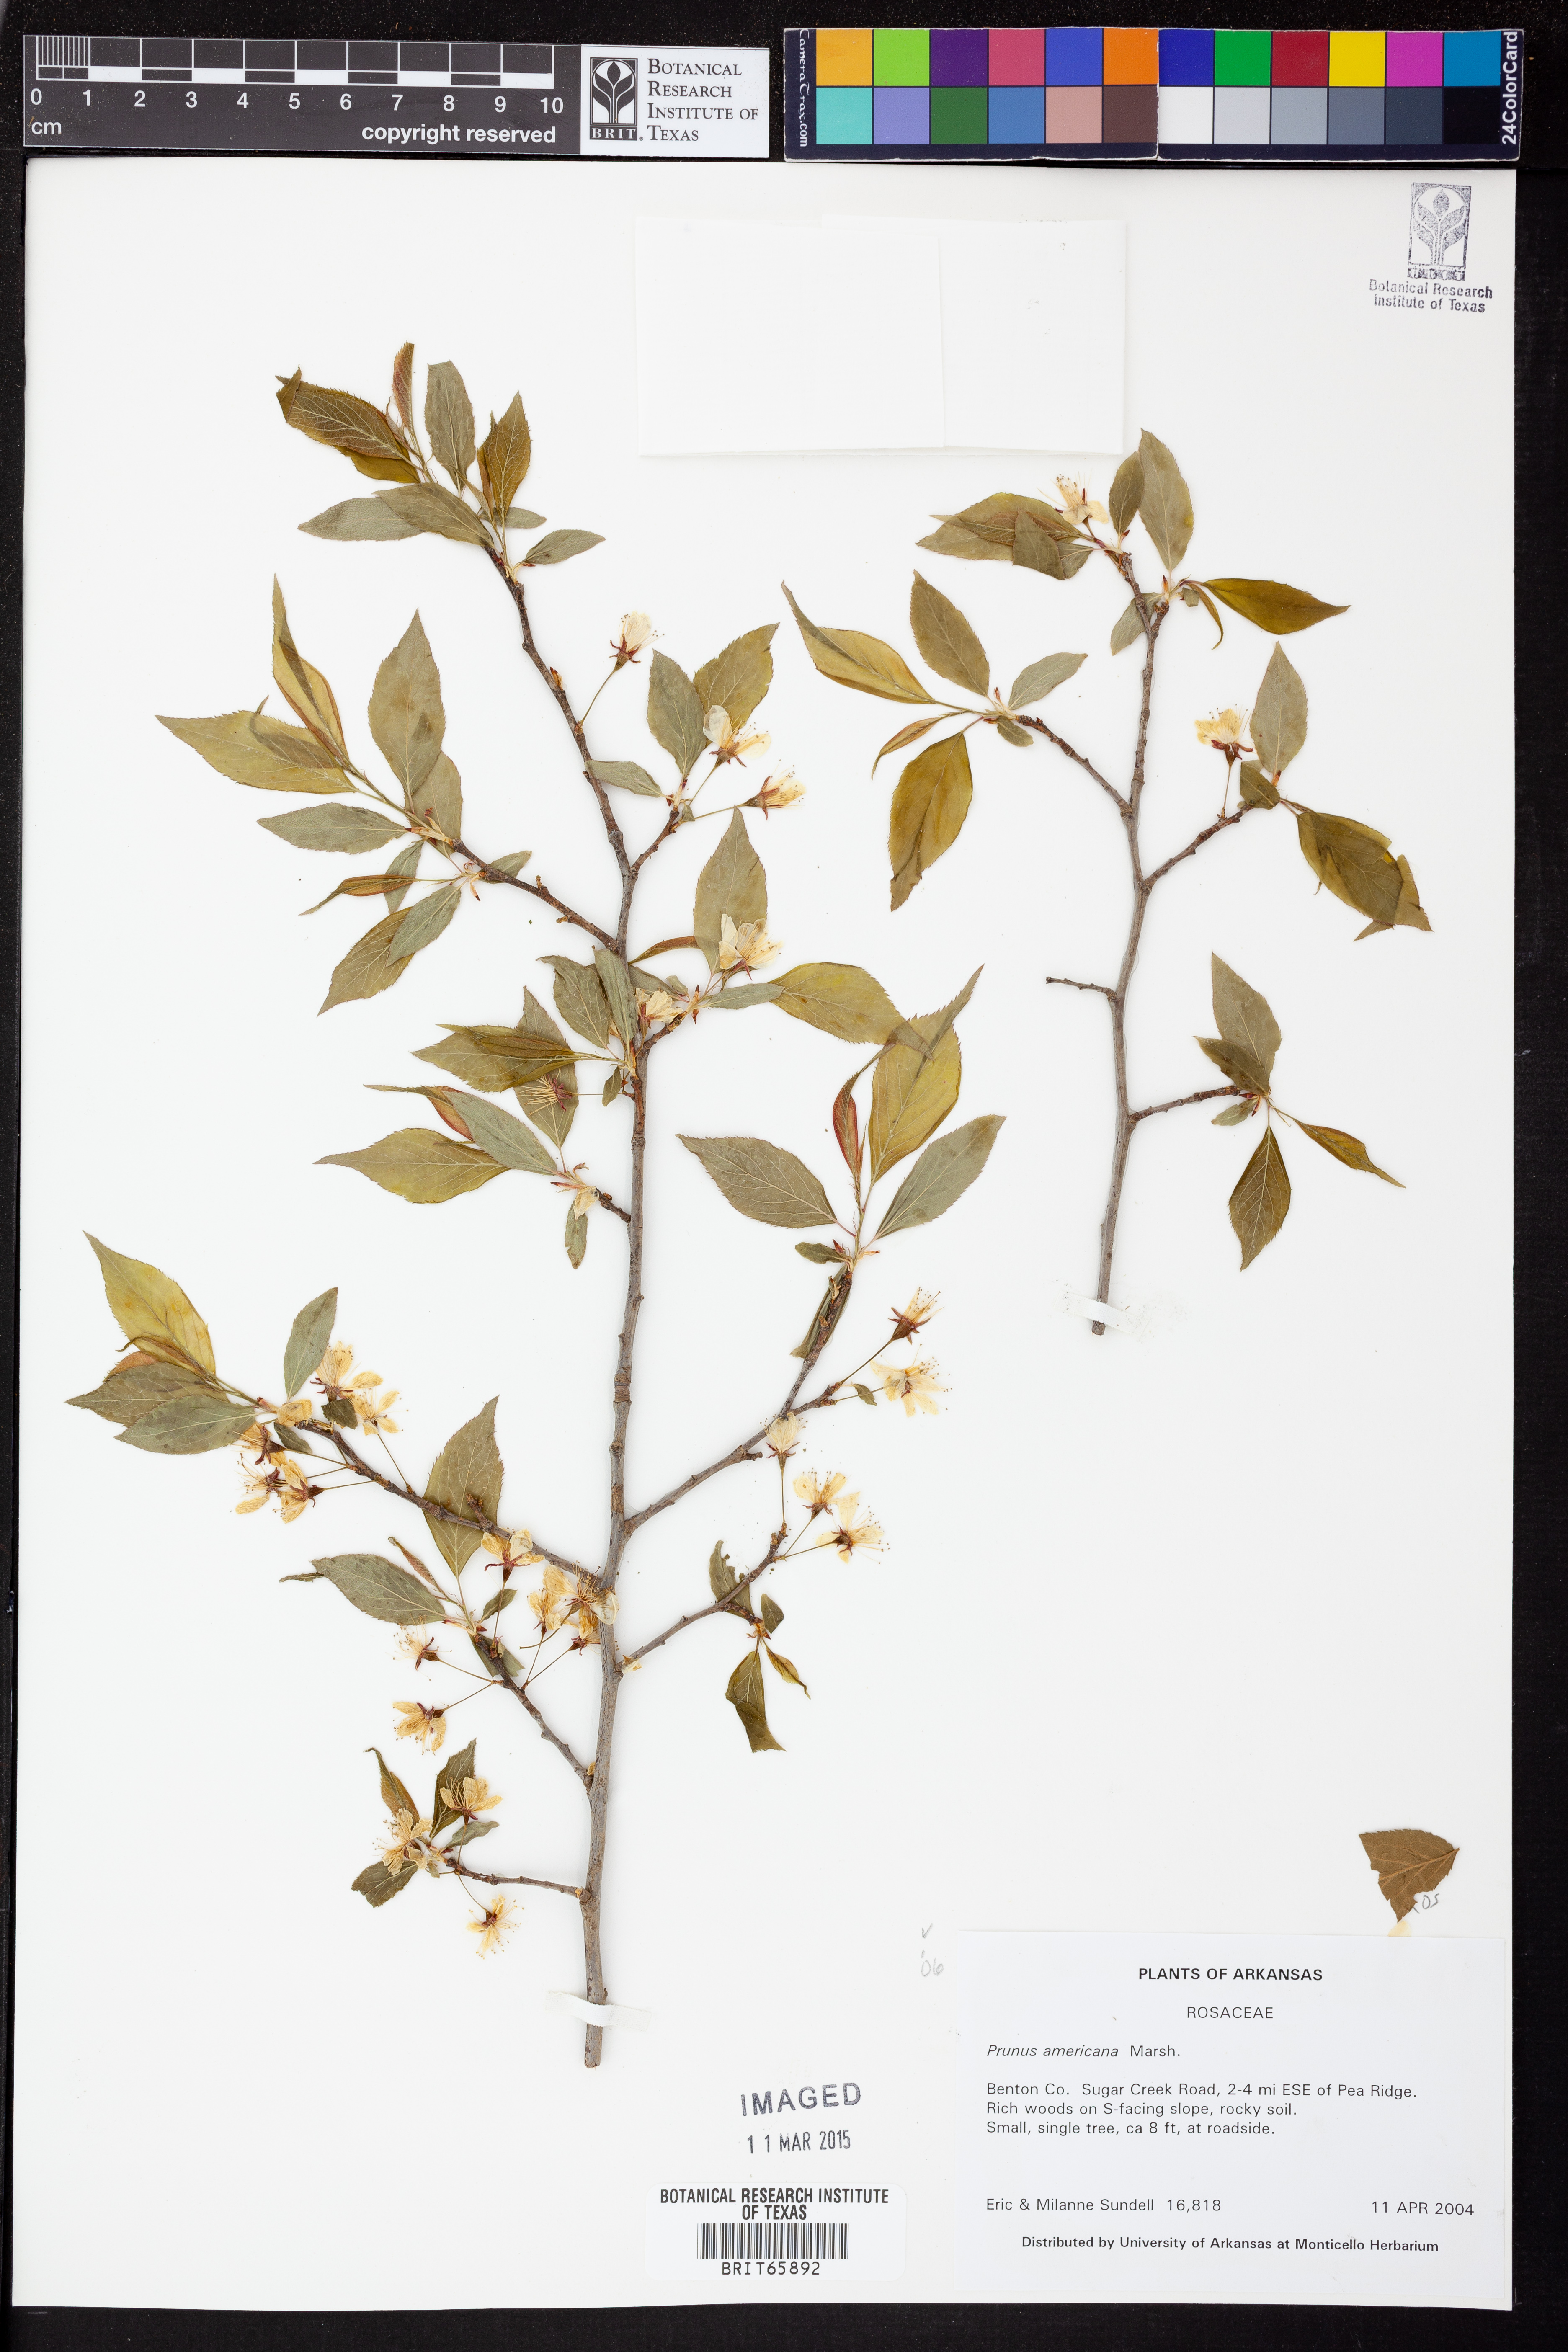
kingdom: Plantae
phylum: Tracheophyta
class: Magnoliopsida
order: Rosales
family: Rosaceae
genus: Prunus
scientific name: Prunus americana
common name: American plum
